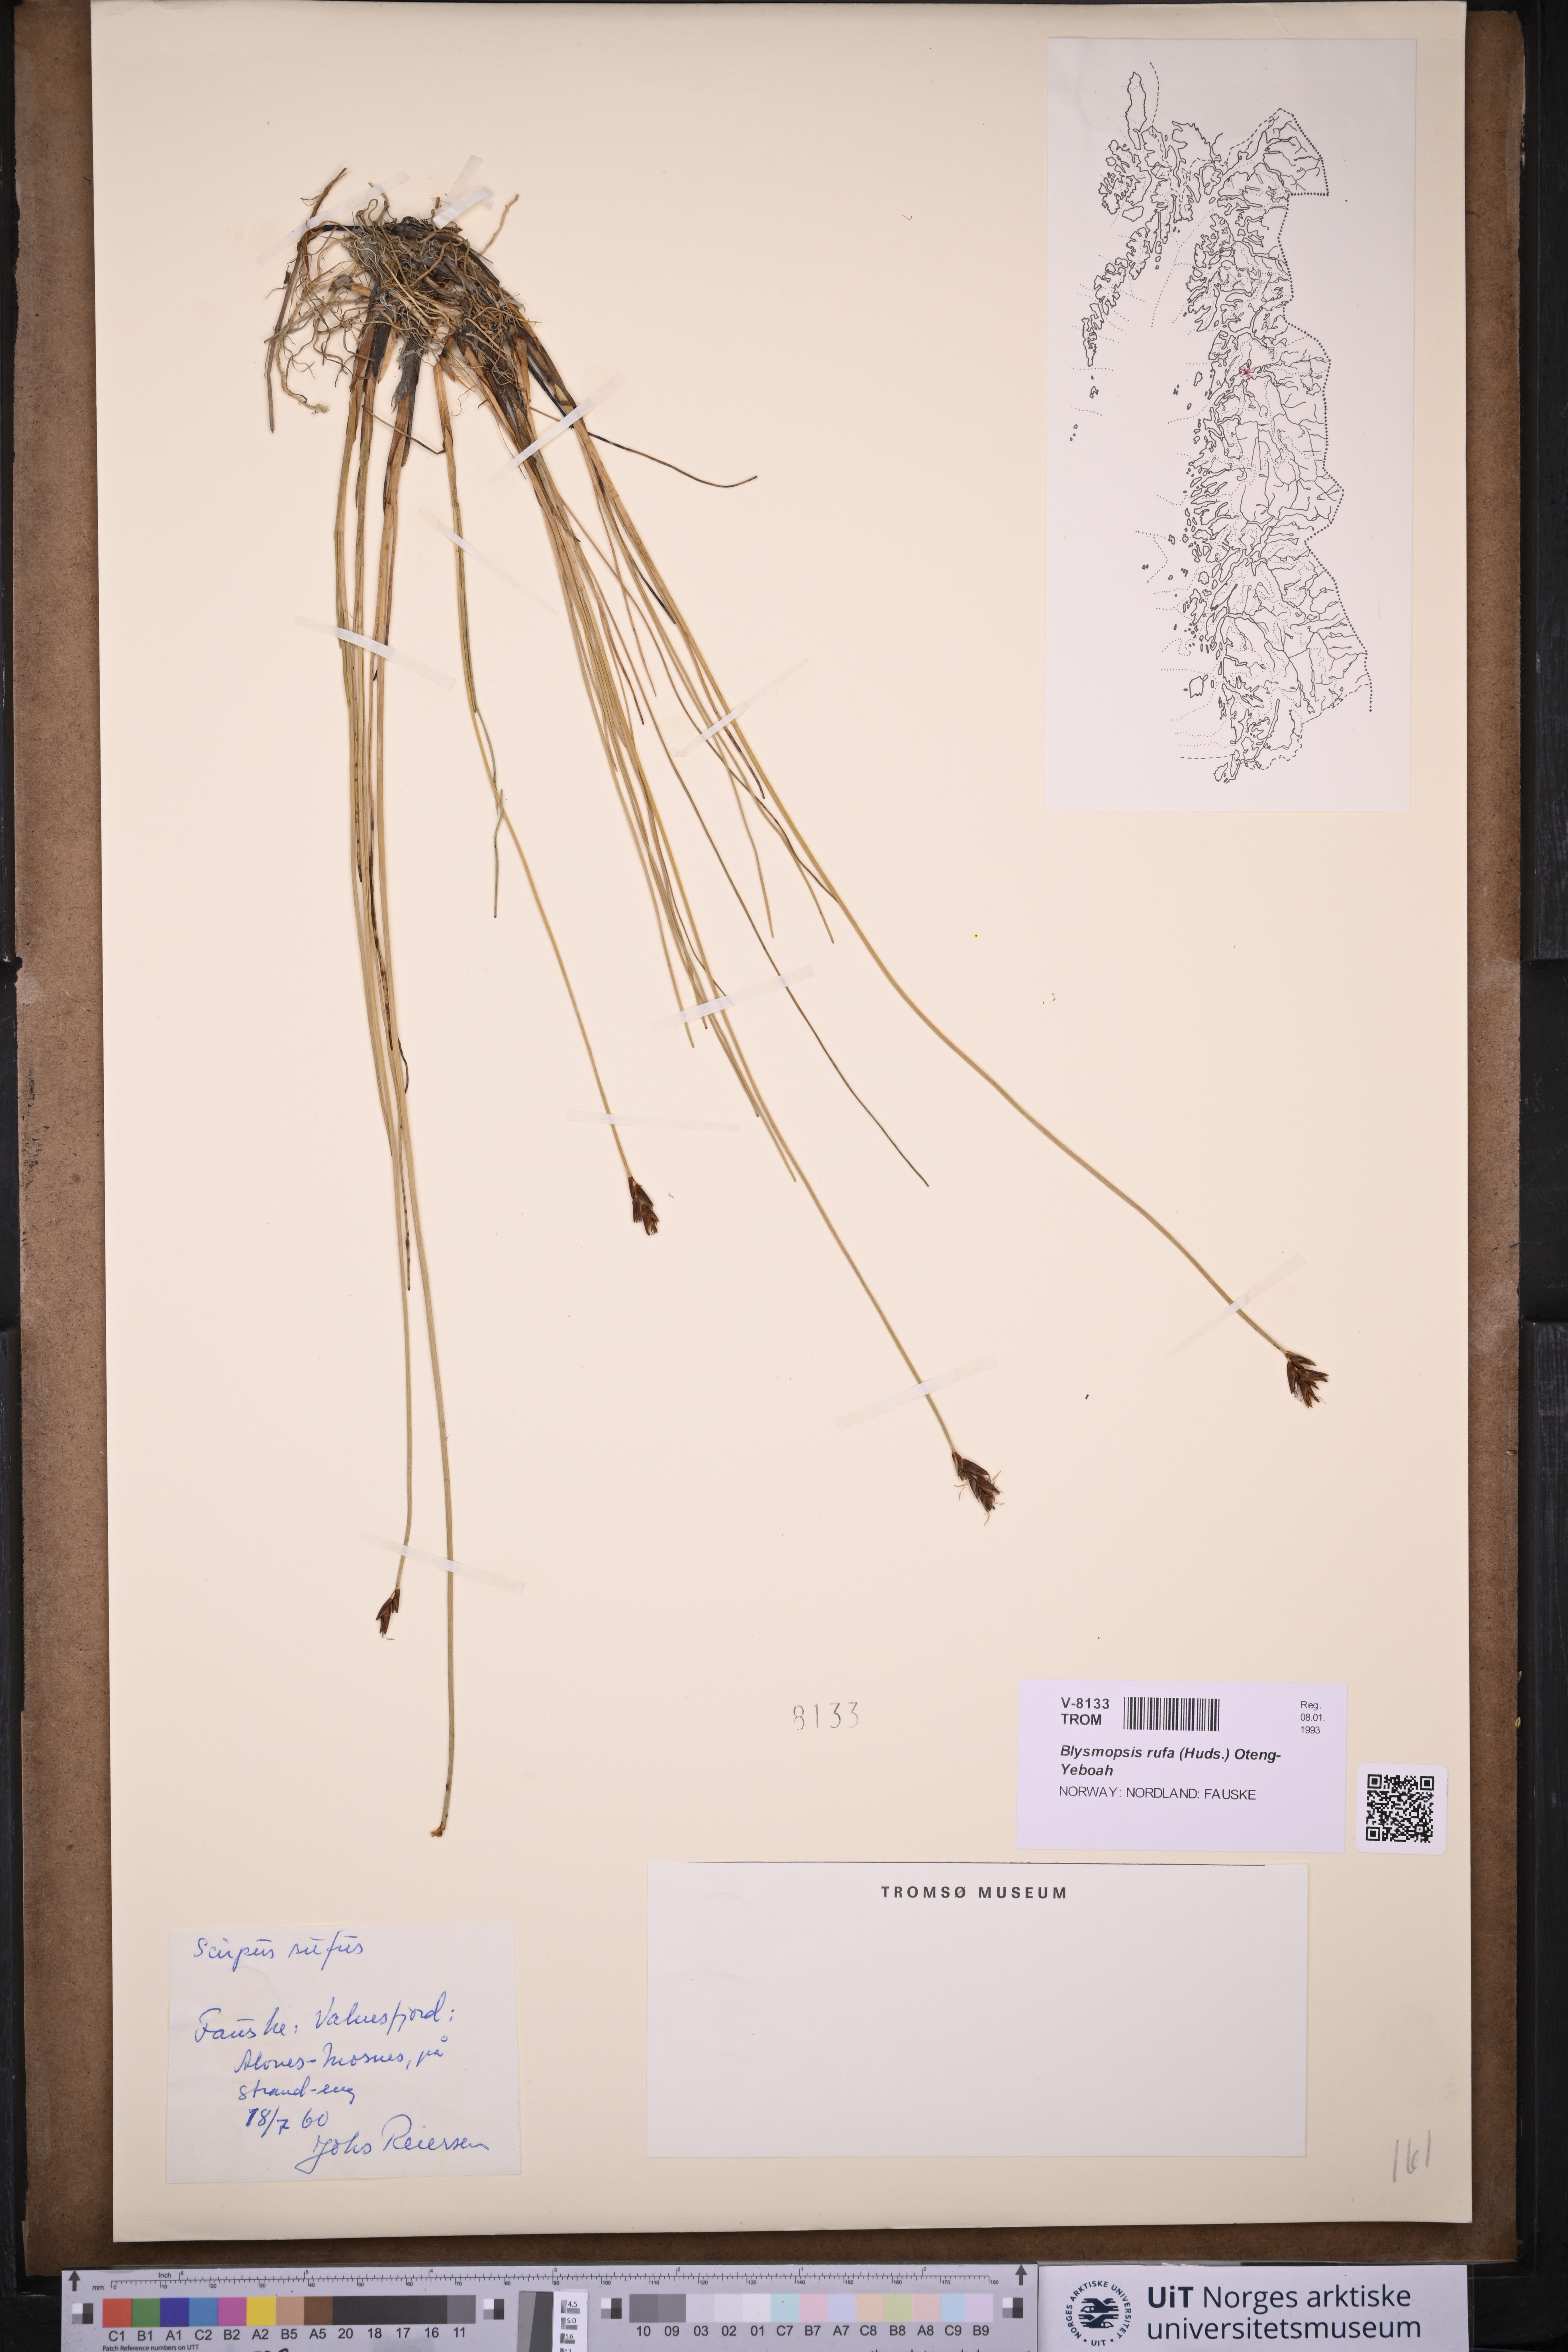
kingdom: Plantae
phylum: Tracheophyta
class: Liliopsida
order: Poales
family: Cyperaceae
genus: Blysmus
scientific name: Blysmus rufus
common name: Saltmarsh flat-sedge
